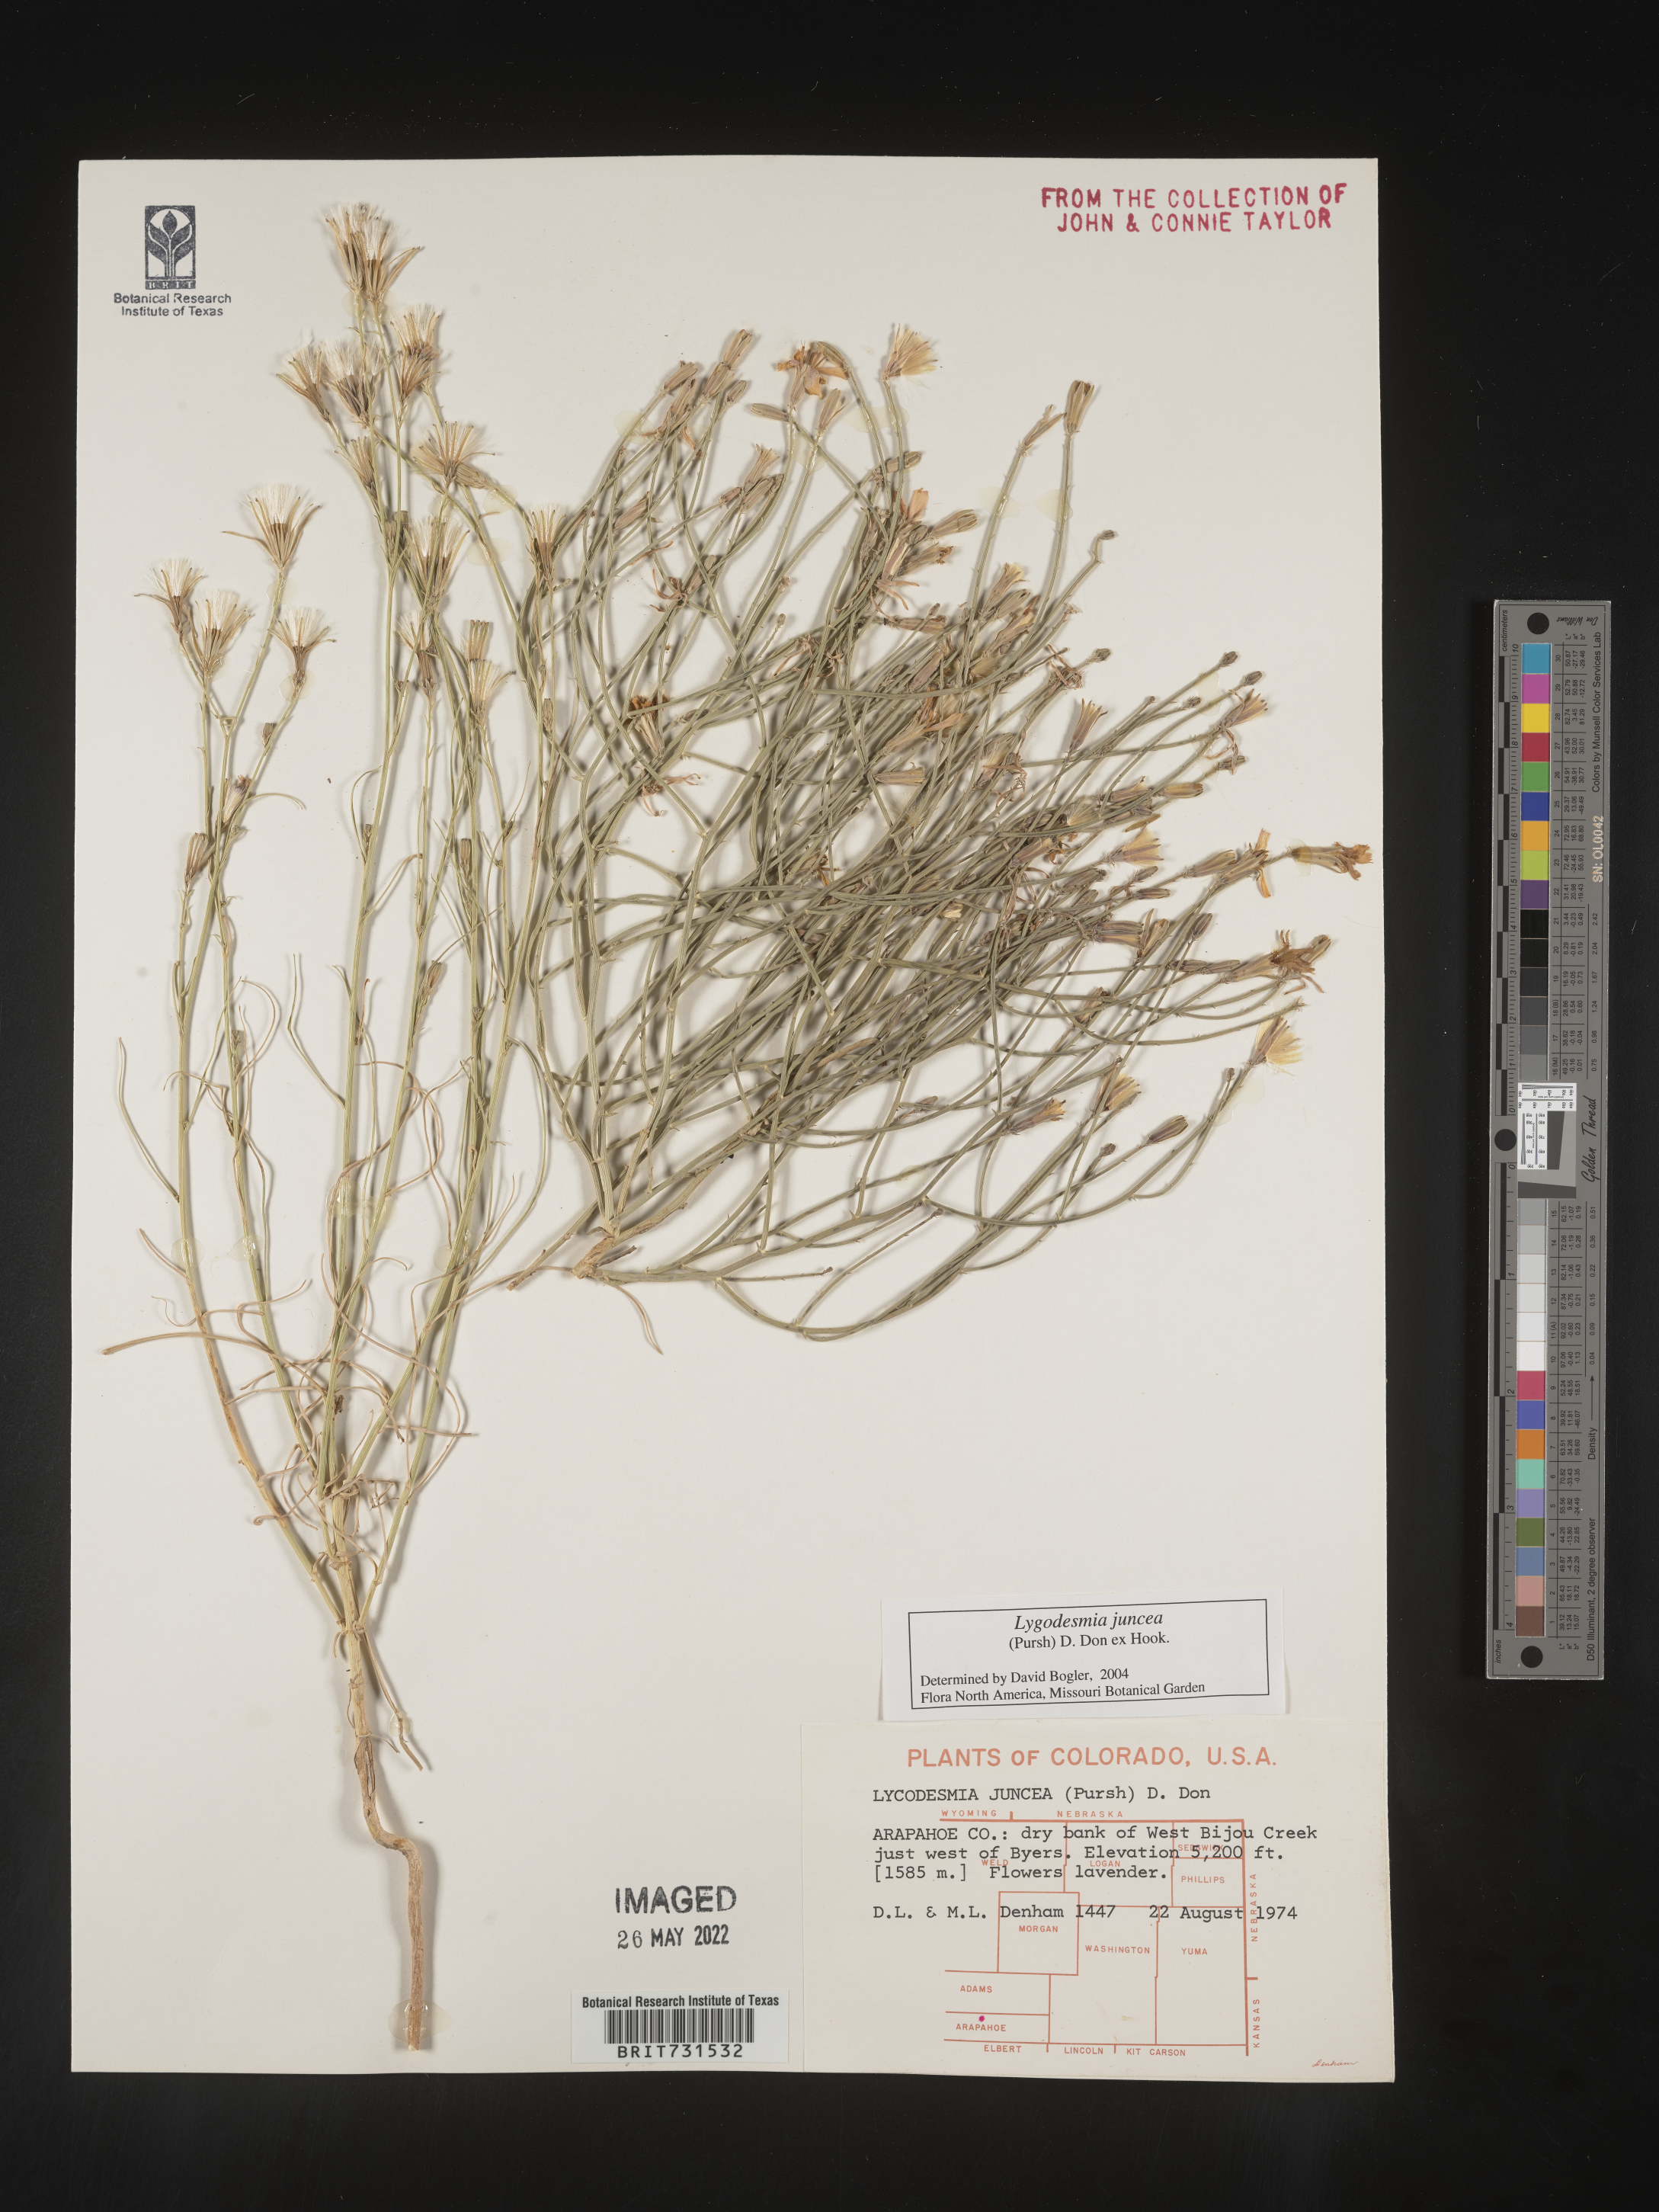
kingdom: Plantae
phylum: Tracheophyta
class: Magnoliopsida
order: Asterales
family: Asteraceae
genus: Lygodesmia
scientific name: Lygodesmia juncea
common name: Common skeletonweed
